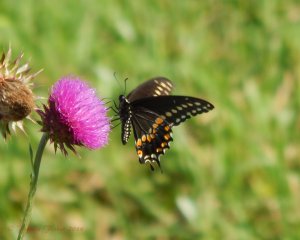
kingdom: Animalia
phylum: Arthropoda
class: Insecta
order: Lepidoptera
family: Papilionidae
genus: Papilio
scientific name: Papilio polyxenes
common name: Black Swallowtail
